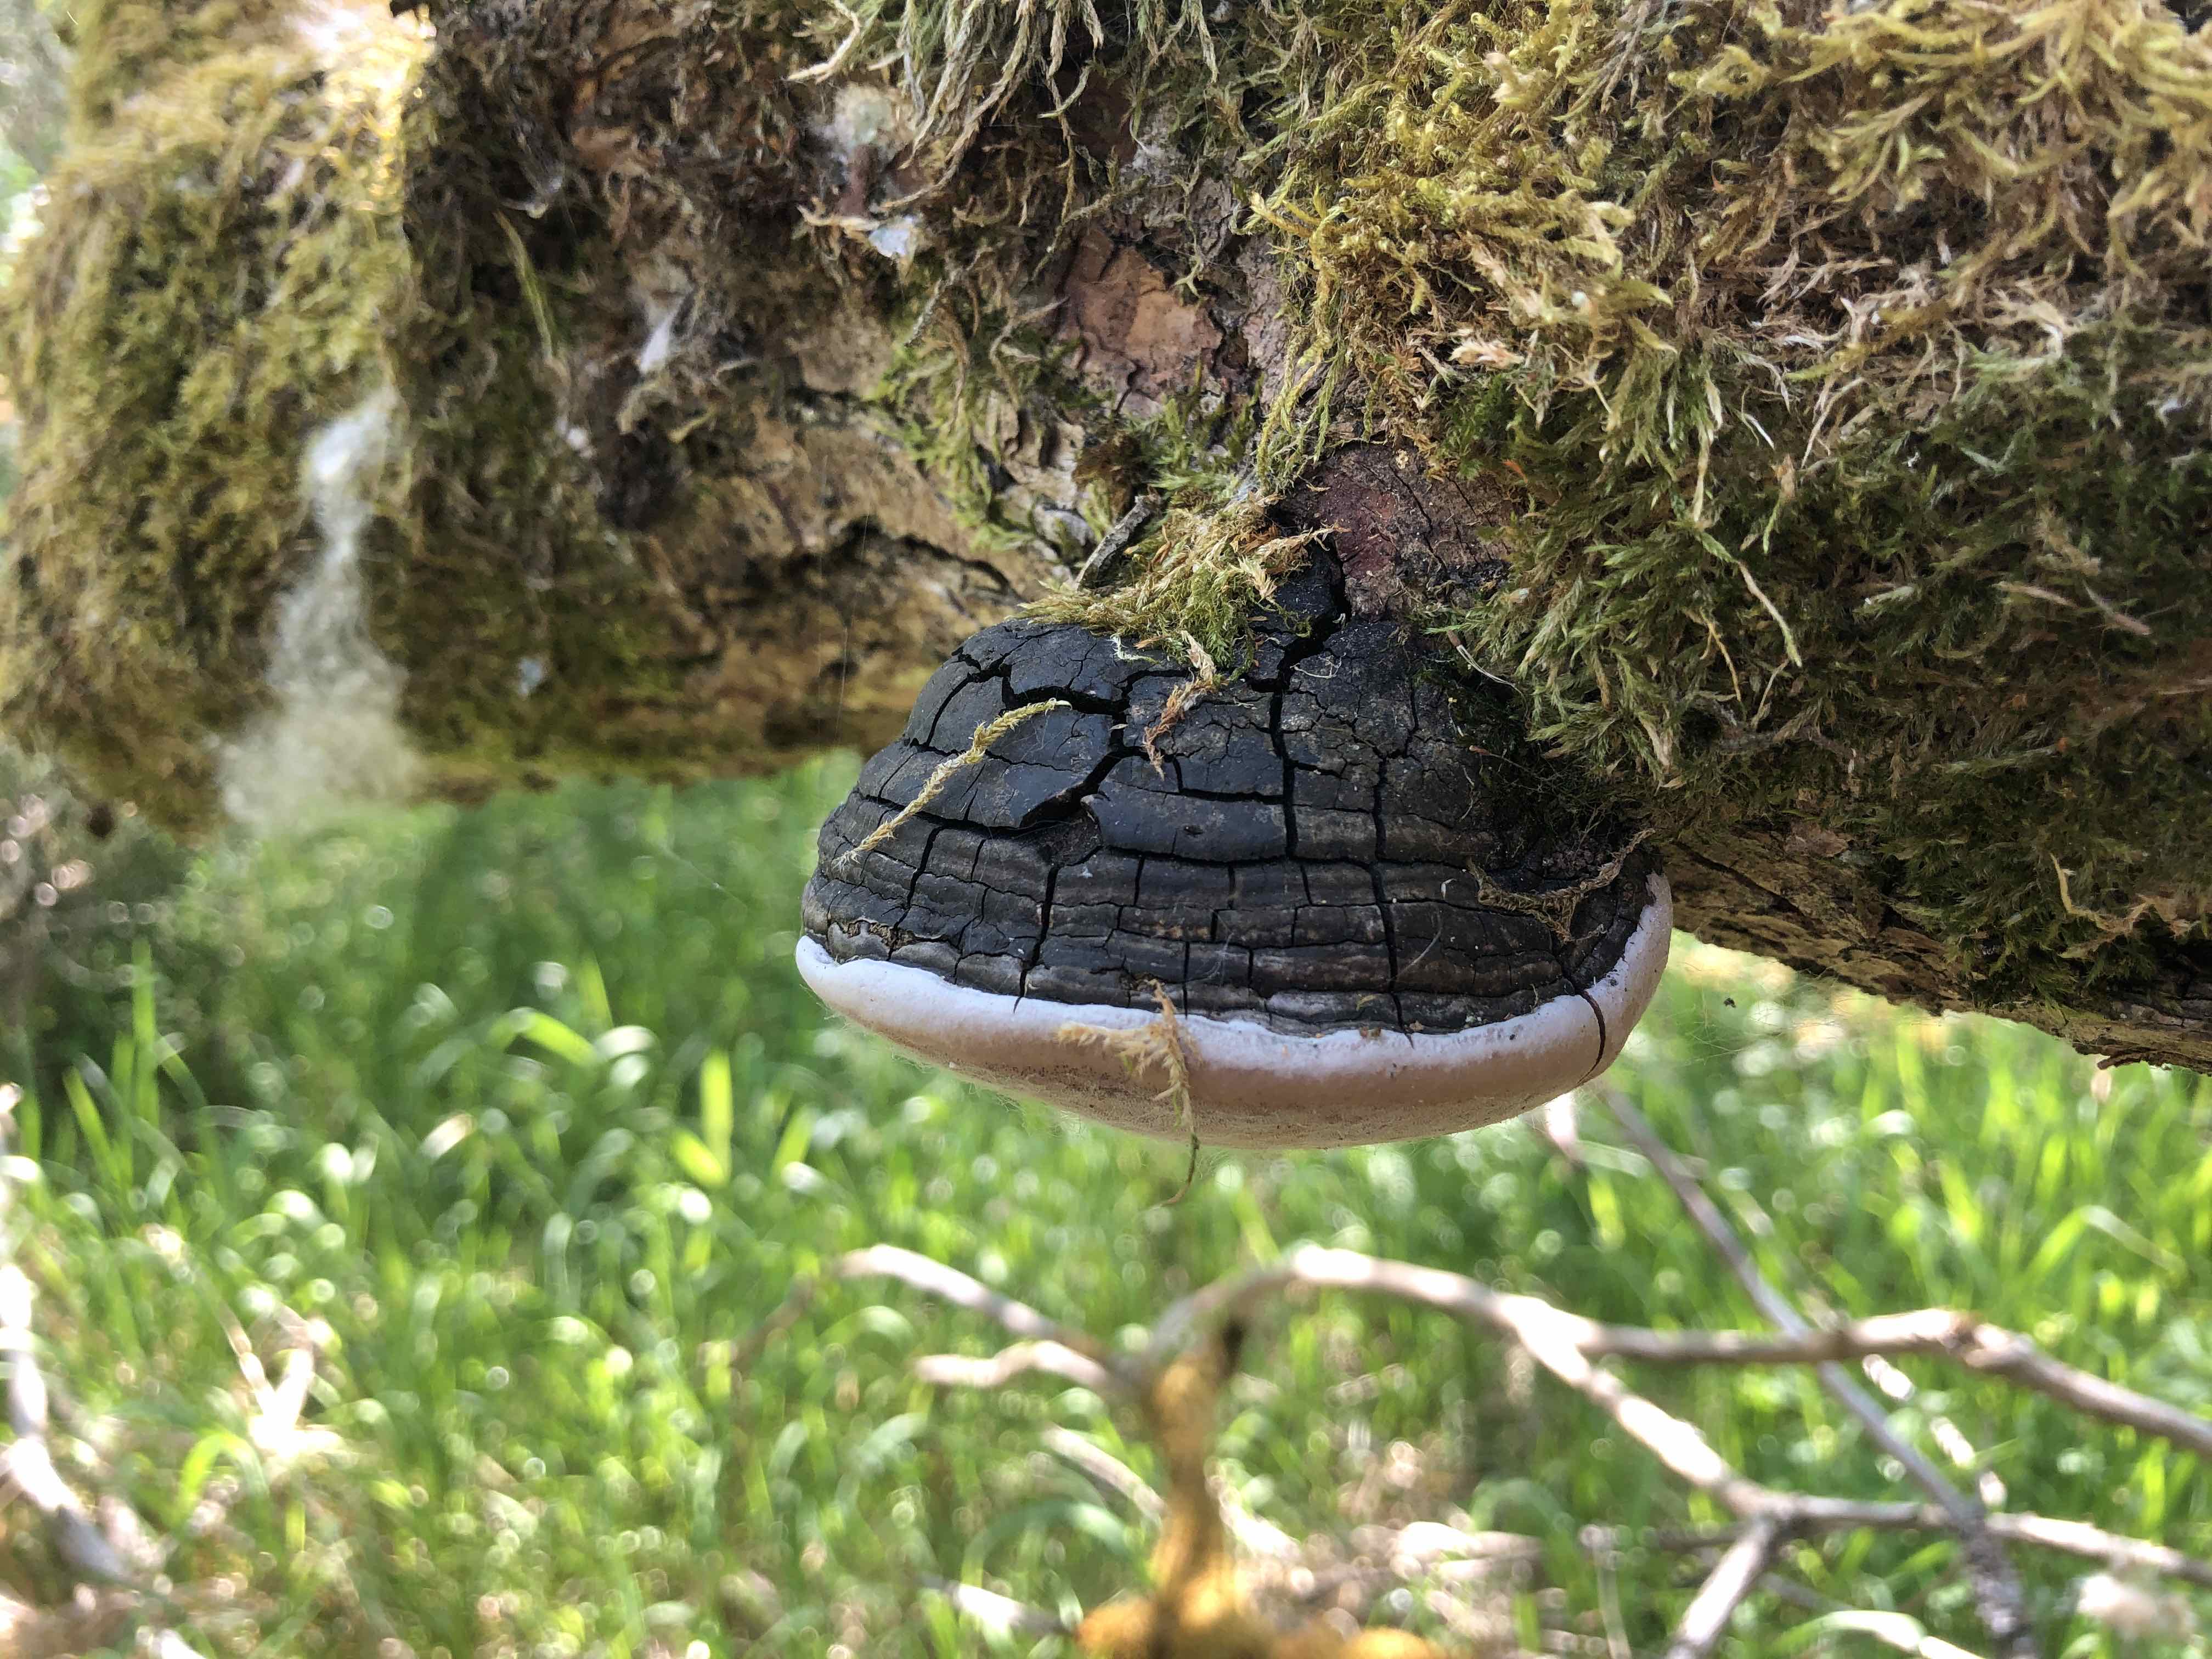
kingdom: Fungi
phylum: Basidiomycota
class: Agaricomycetes
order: Hymenochaetales
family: Hymenochaetaceae
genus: Phellinus
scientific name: Phellinus igniarius
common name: almindelig ildporesvamp
